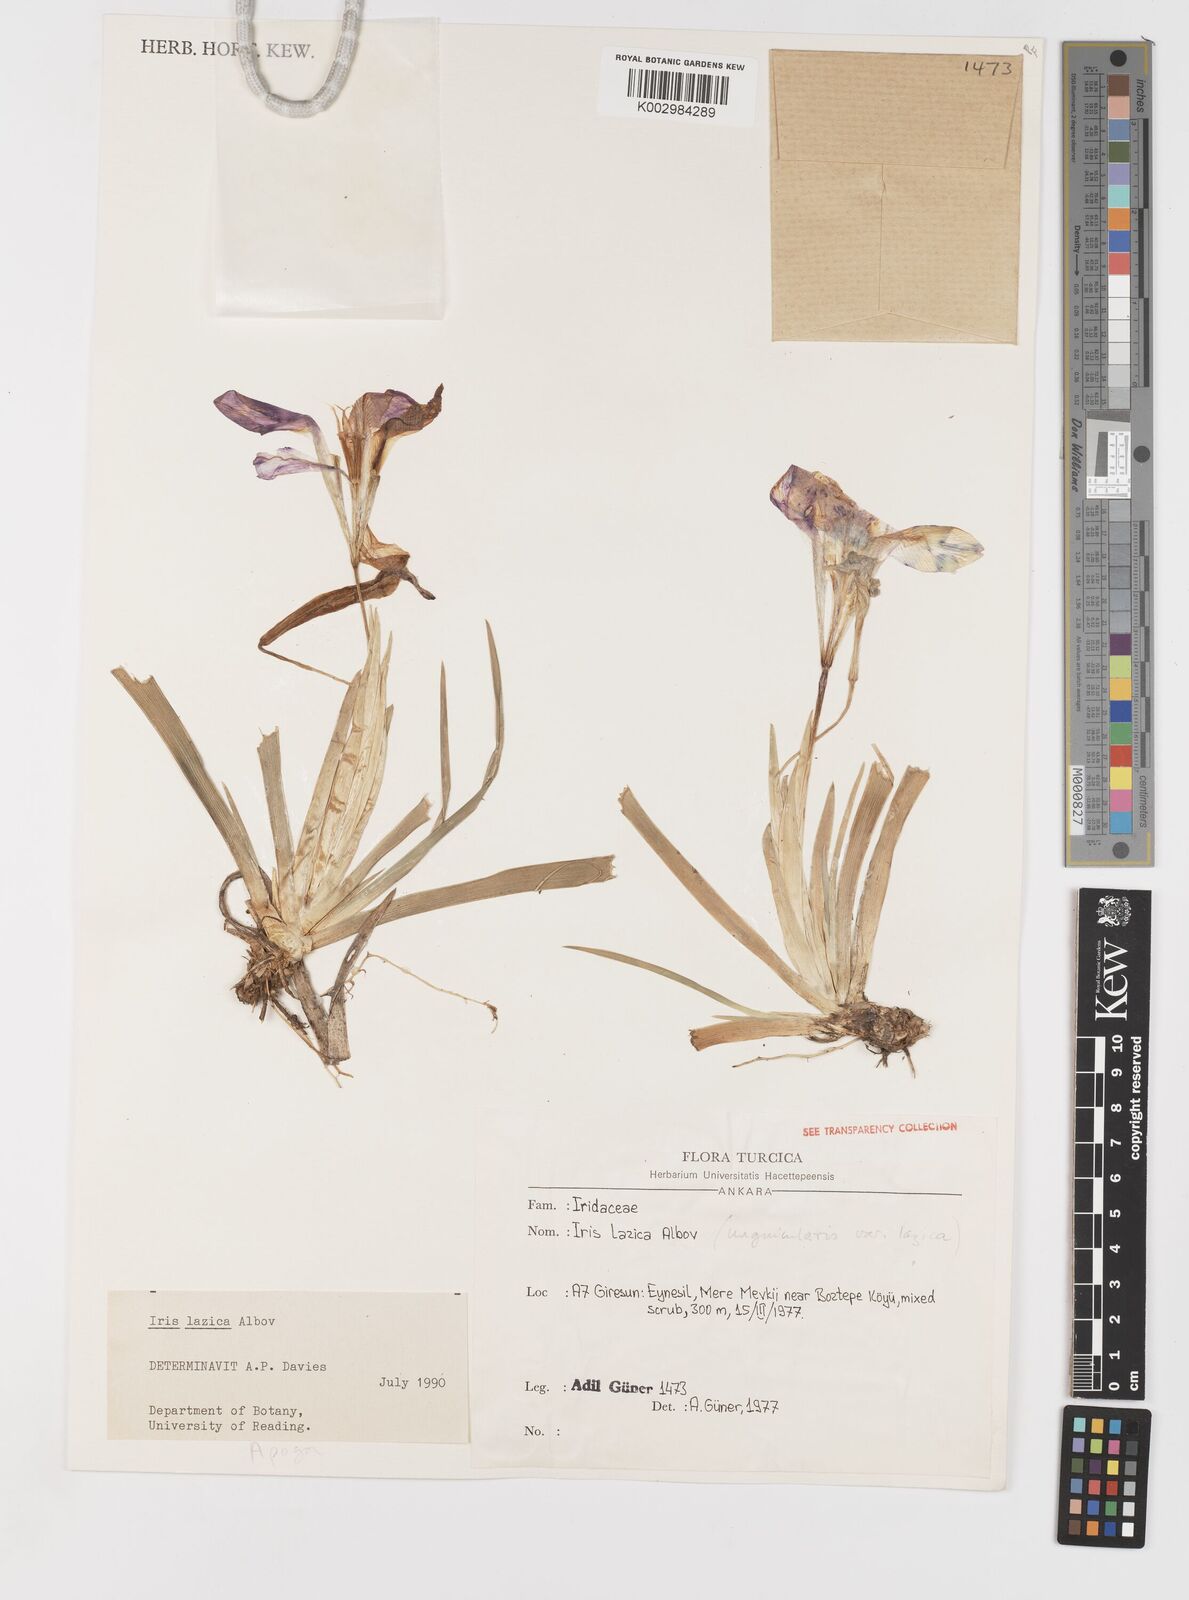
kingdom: Plantae
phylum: Tracheophyta
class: Liliopsida
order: Asparagales
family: Iridaceae
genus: Iris
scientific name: Iris lazica
